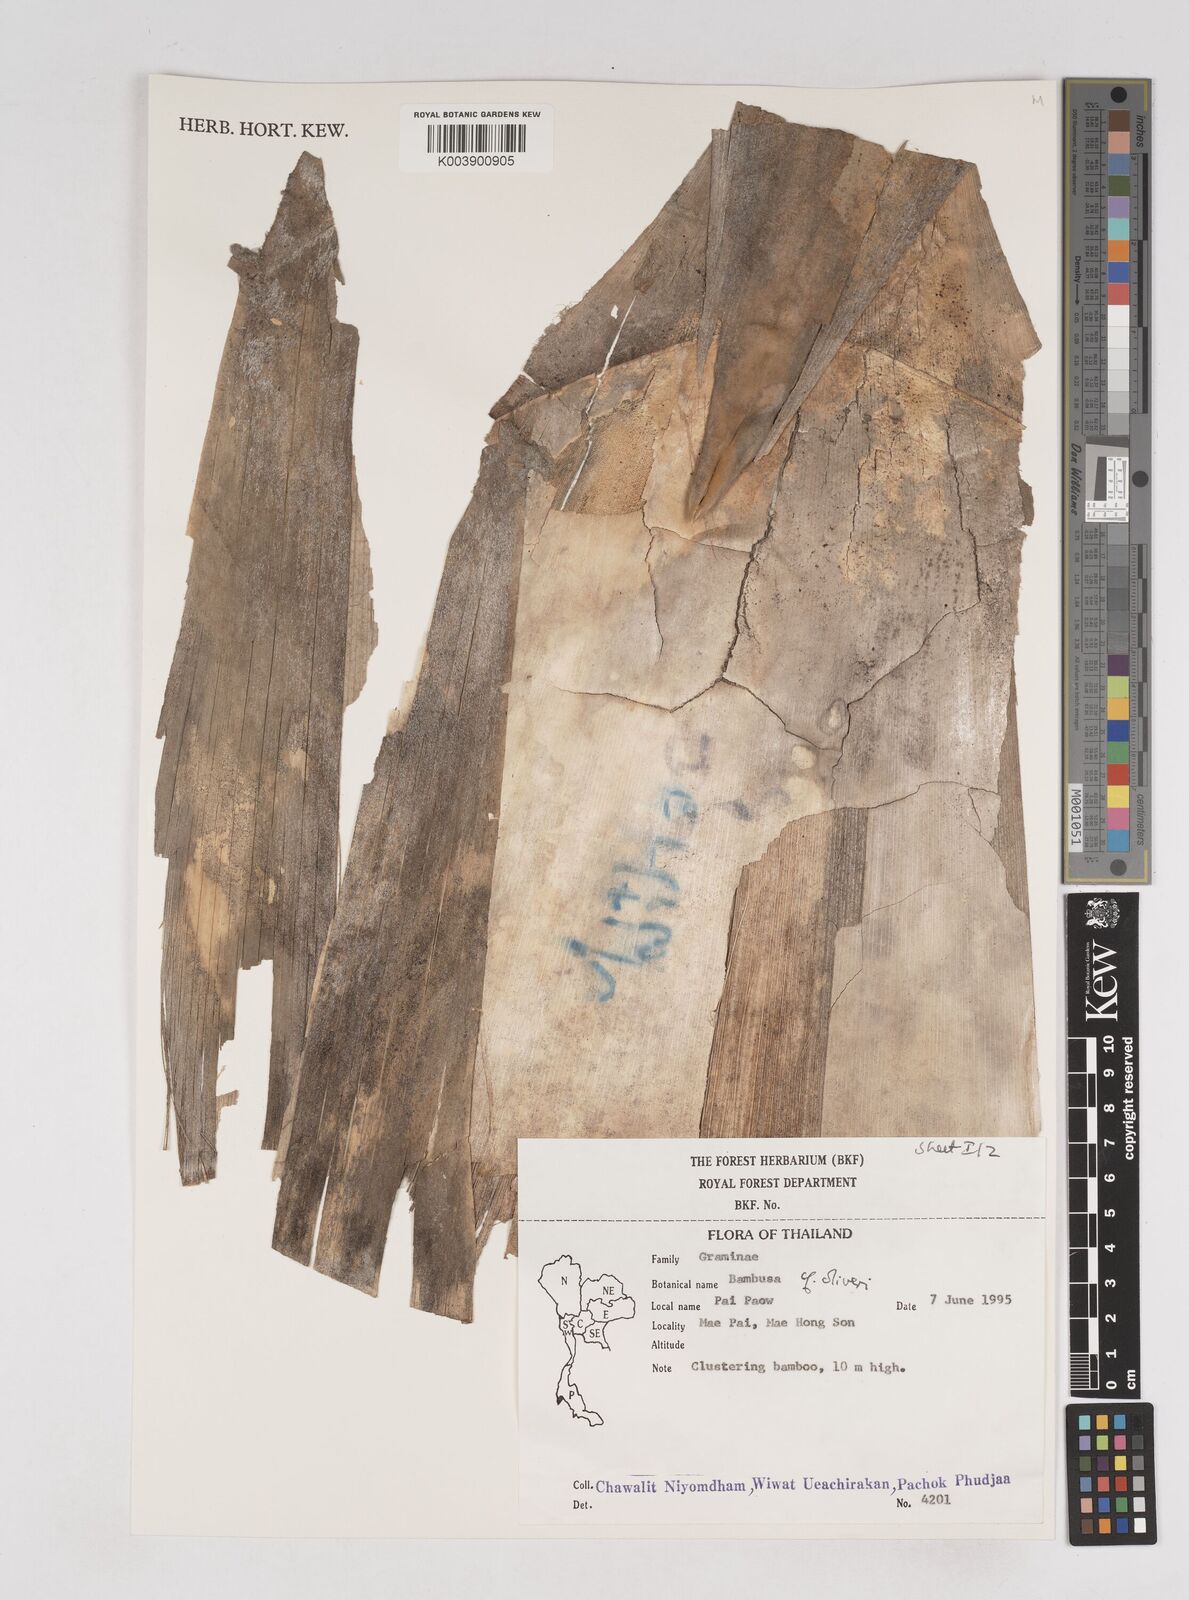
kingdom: Plantae
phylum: Tracheophyta
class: Liliopsida
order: Poales
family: Poaceae
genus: Thyrsostachys
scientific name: Thyrsostachys oliveri
